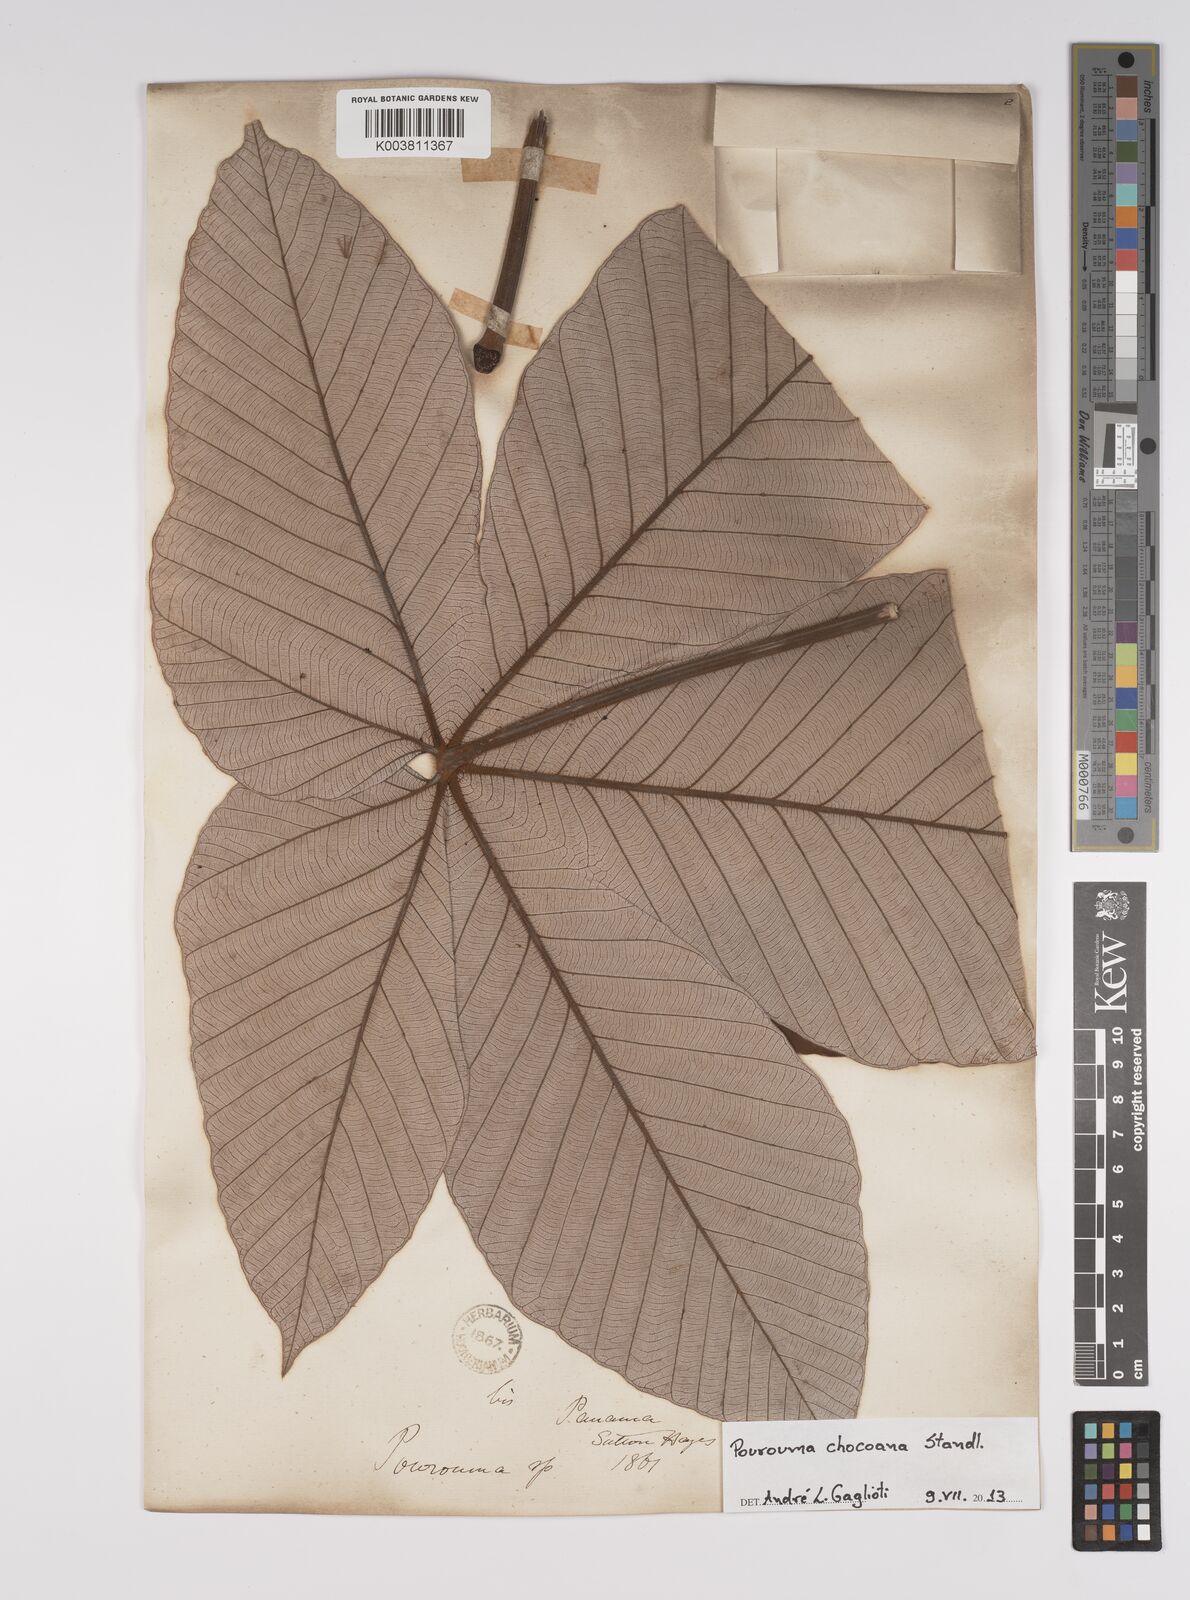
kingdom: Plantae
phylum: Tracheophyta
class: Magnoliopsida
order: Rosales
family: Urticaceae
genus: Pourouma
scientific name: Pourouma bicolor
